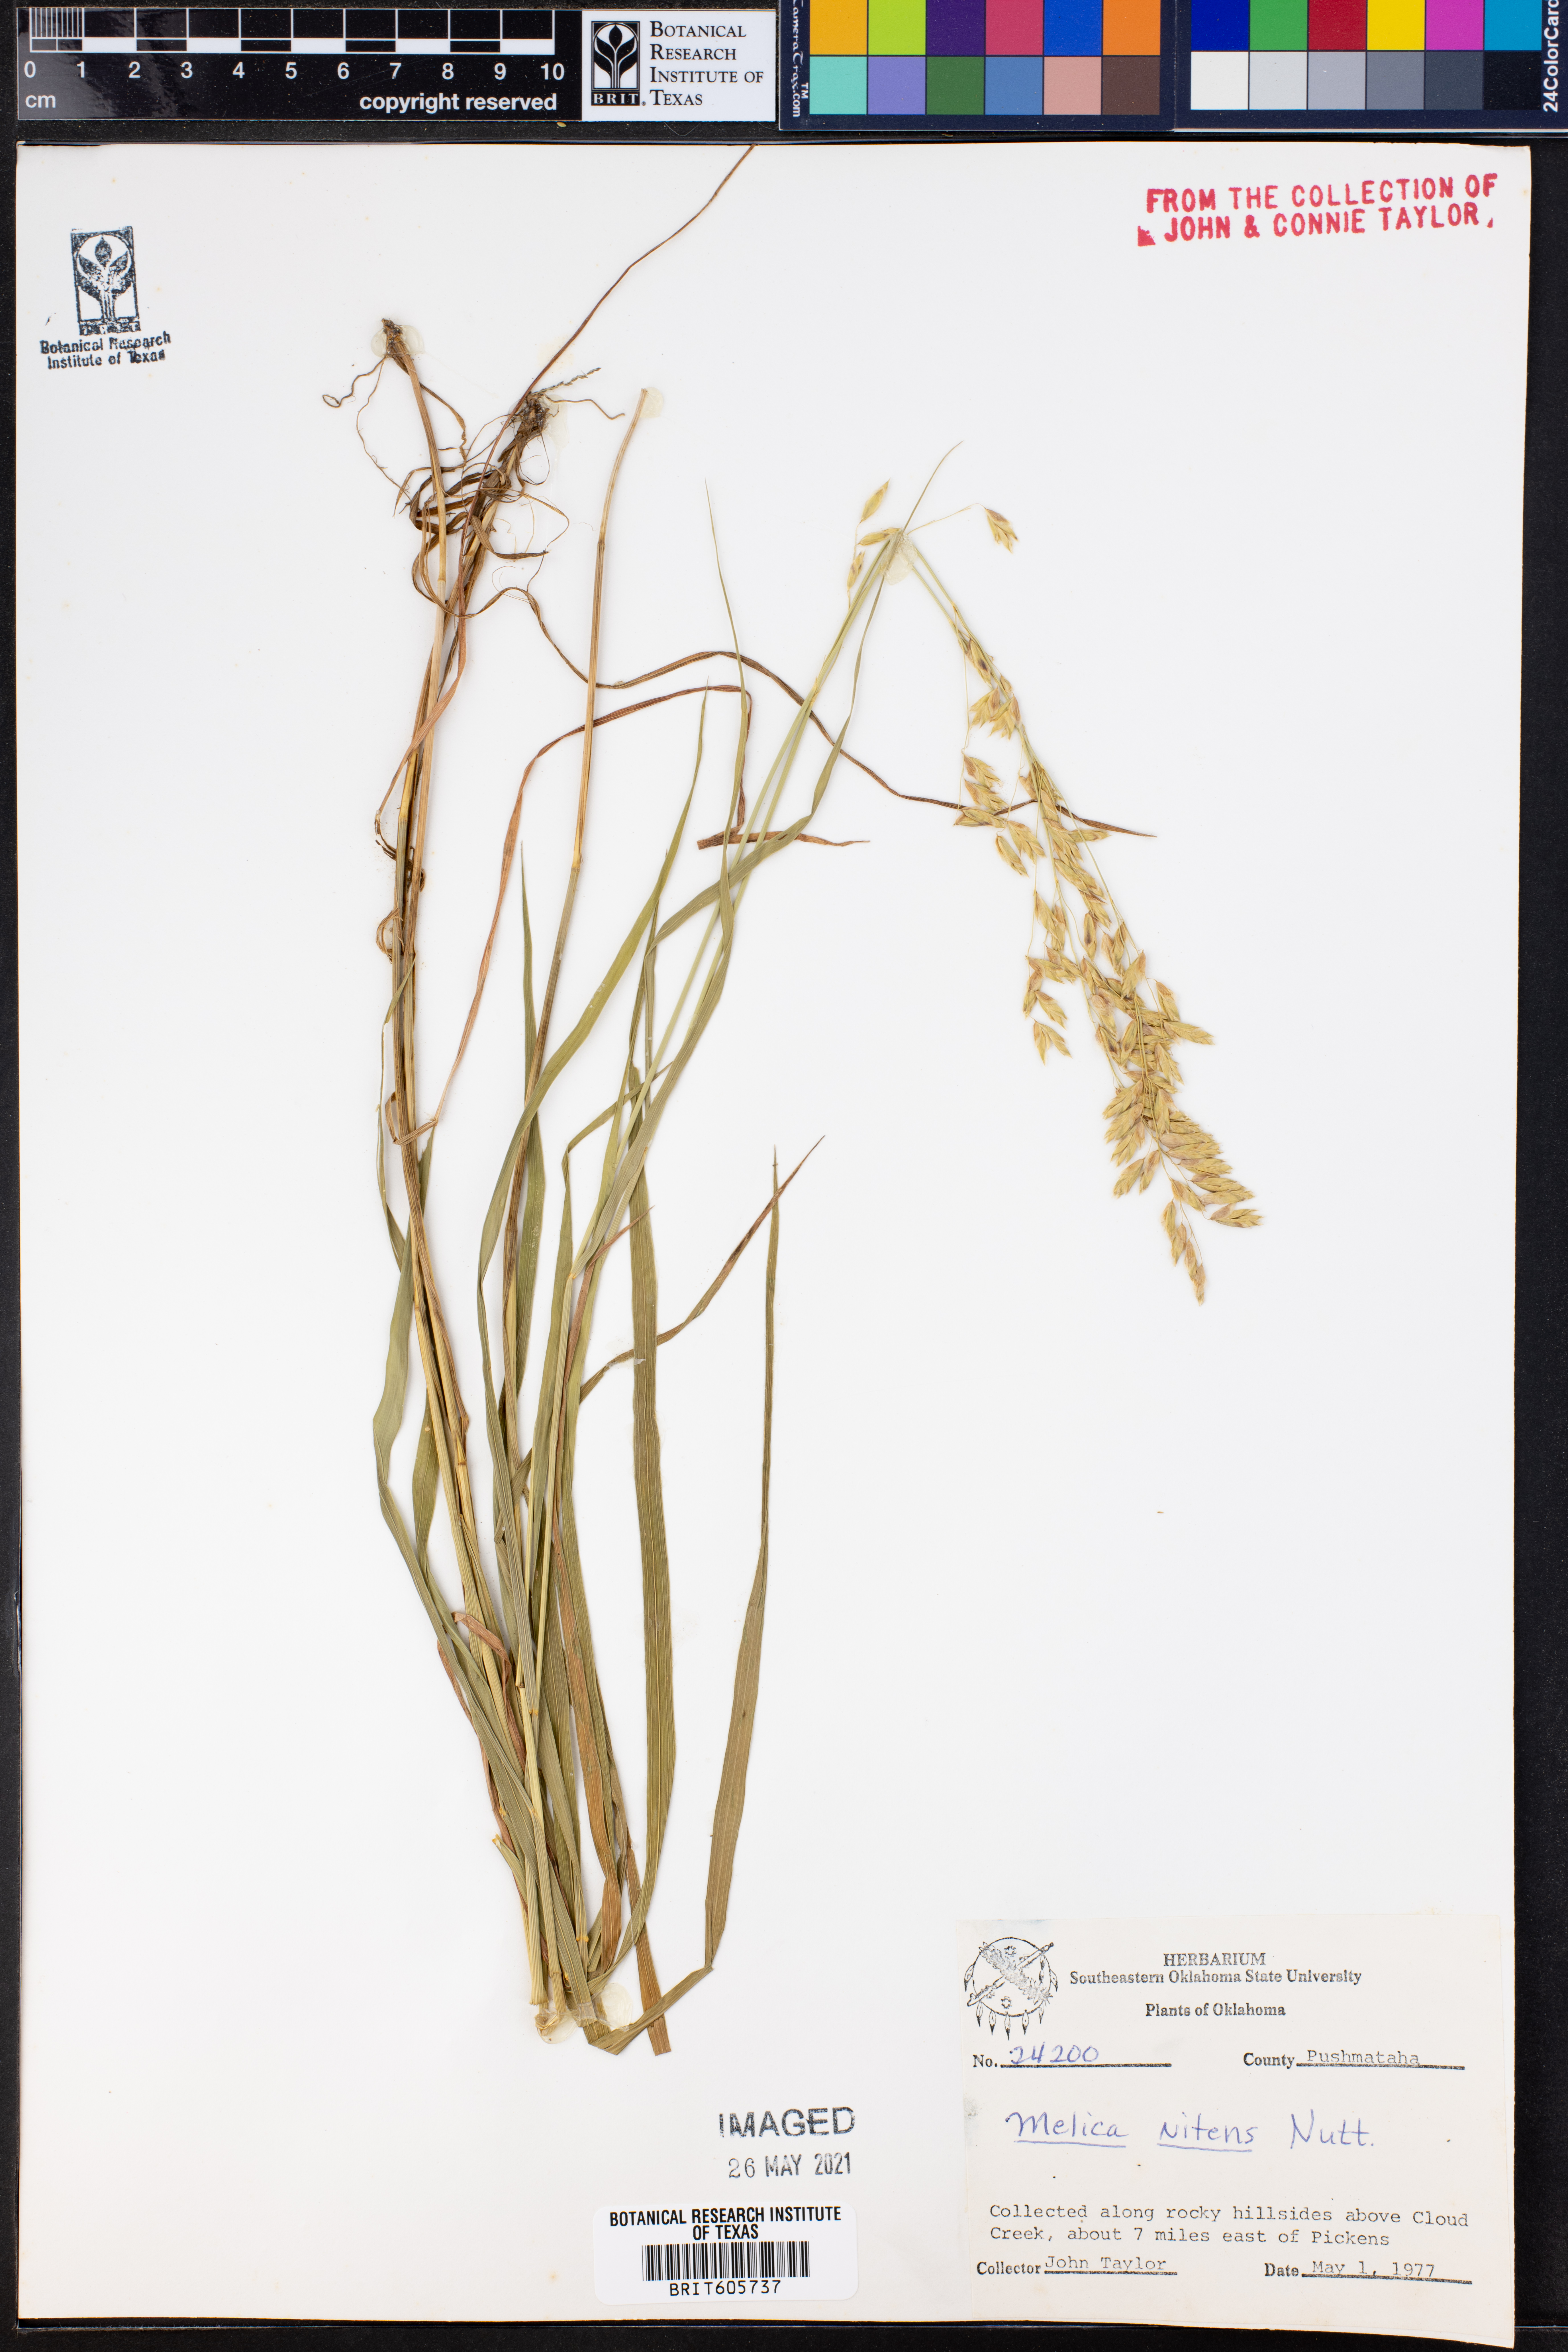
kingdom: Plantae
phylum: Tracheophyta
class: Liliopsida
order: Poales
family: Poaceae
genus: Melica
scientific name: Melica nitens
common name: Three-flower melic
